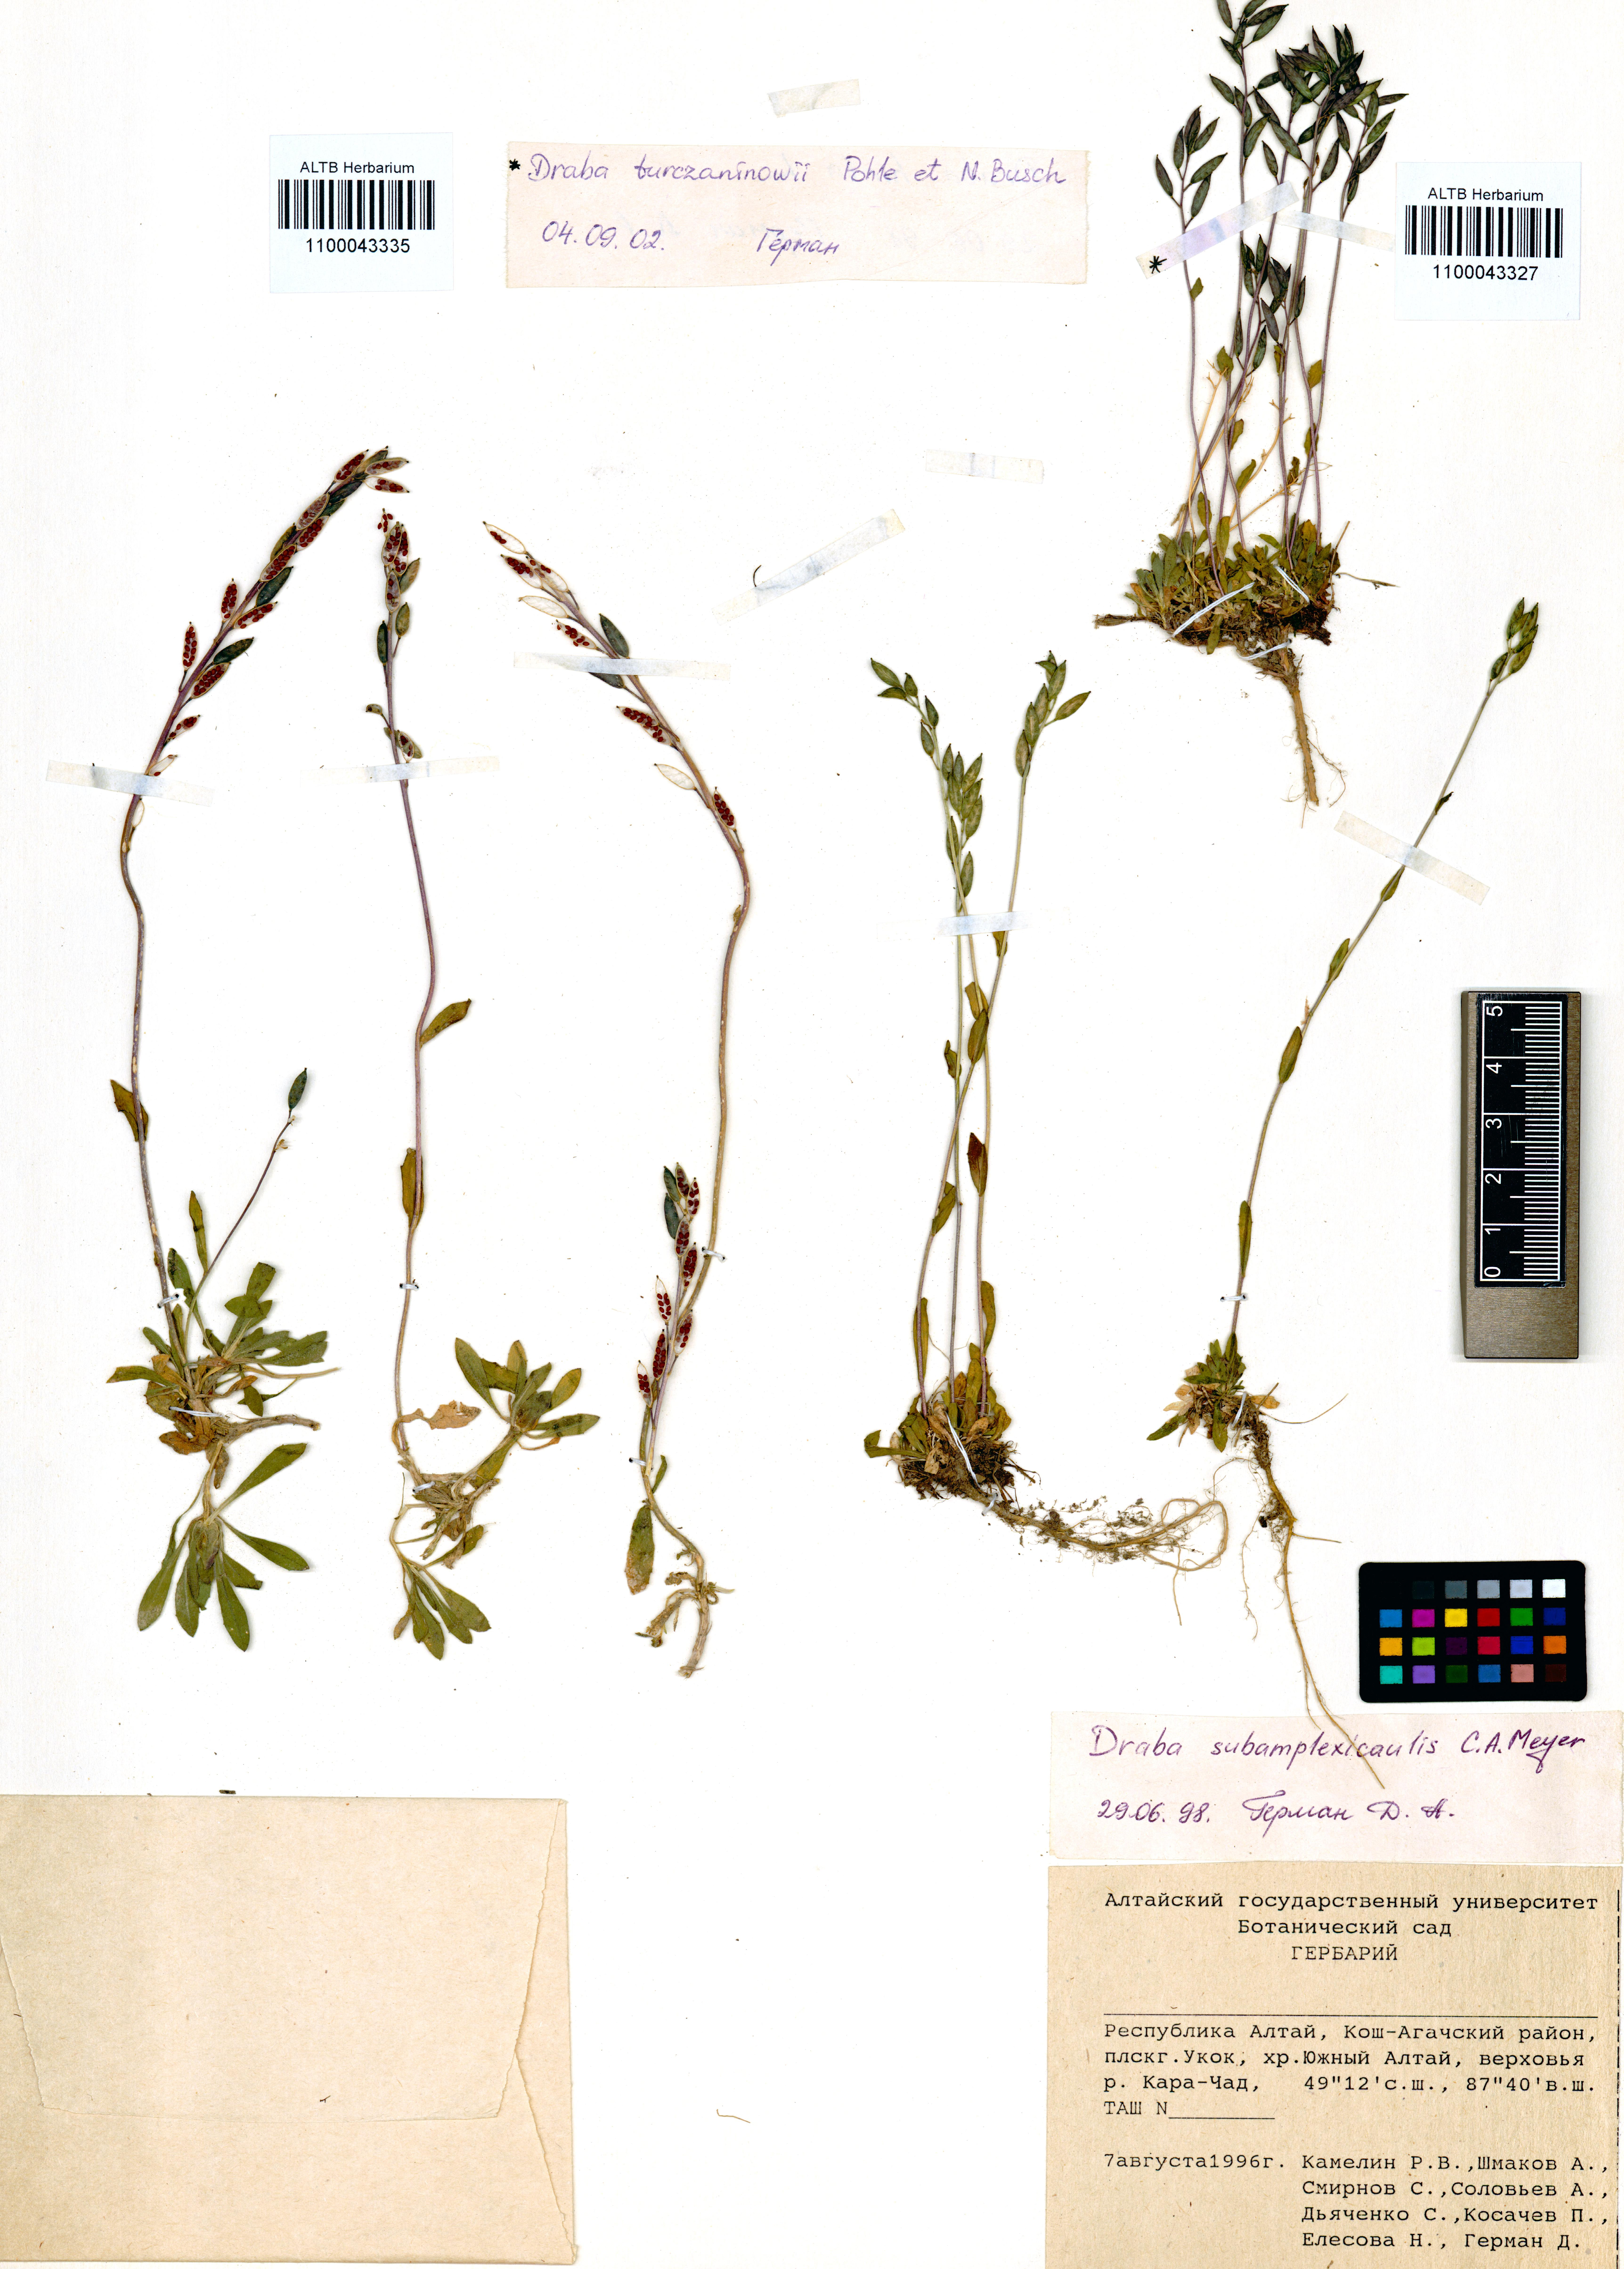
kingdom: Plantae
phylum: Tracheophyta
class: Magnoliopsida
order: Brassicales
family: Brassicaceae
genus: Draba
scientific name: Draba turczaninovii
